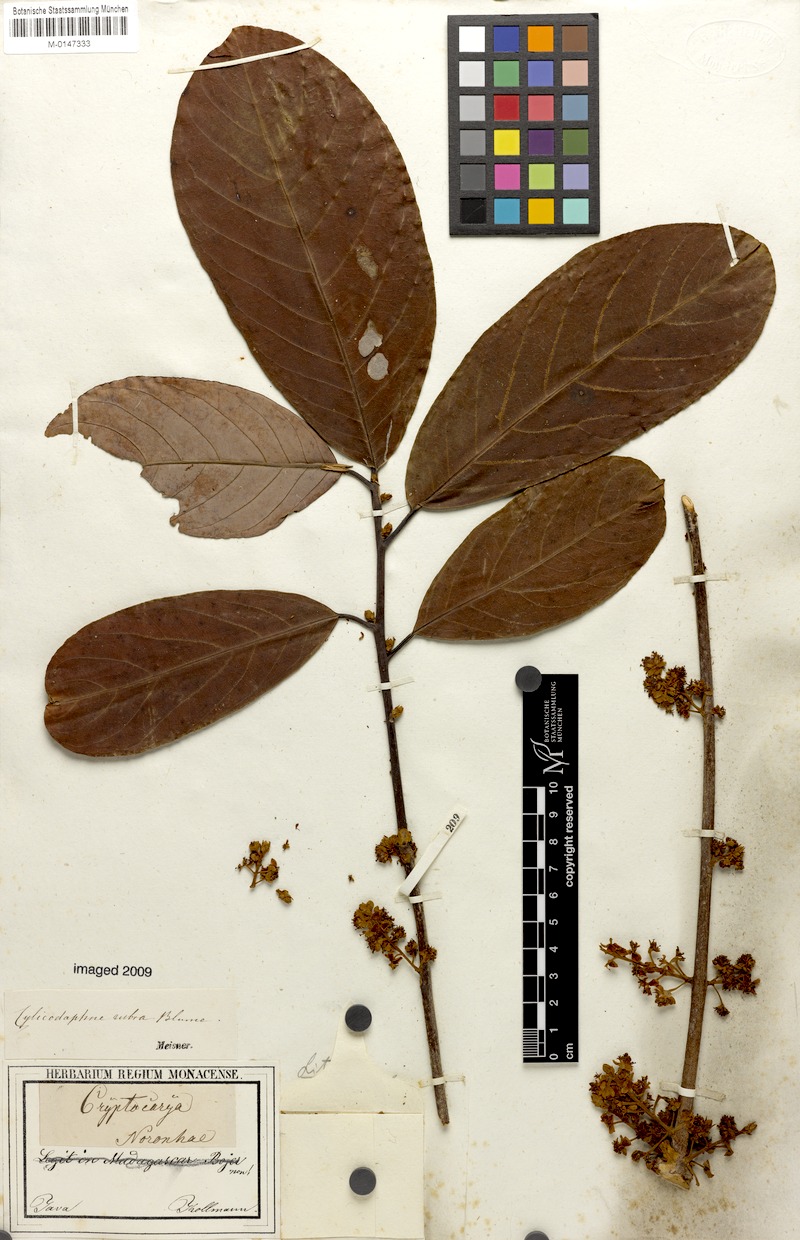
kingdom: Plantae
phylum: Tracheophyta
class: Magnoliopsida
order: Laurales
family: Lauraceae
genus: Litsea
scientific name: Litsea rubra
